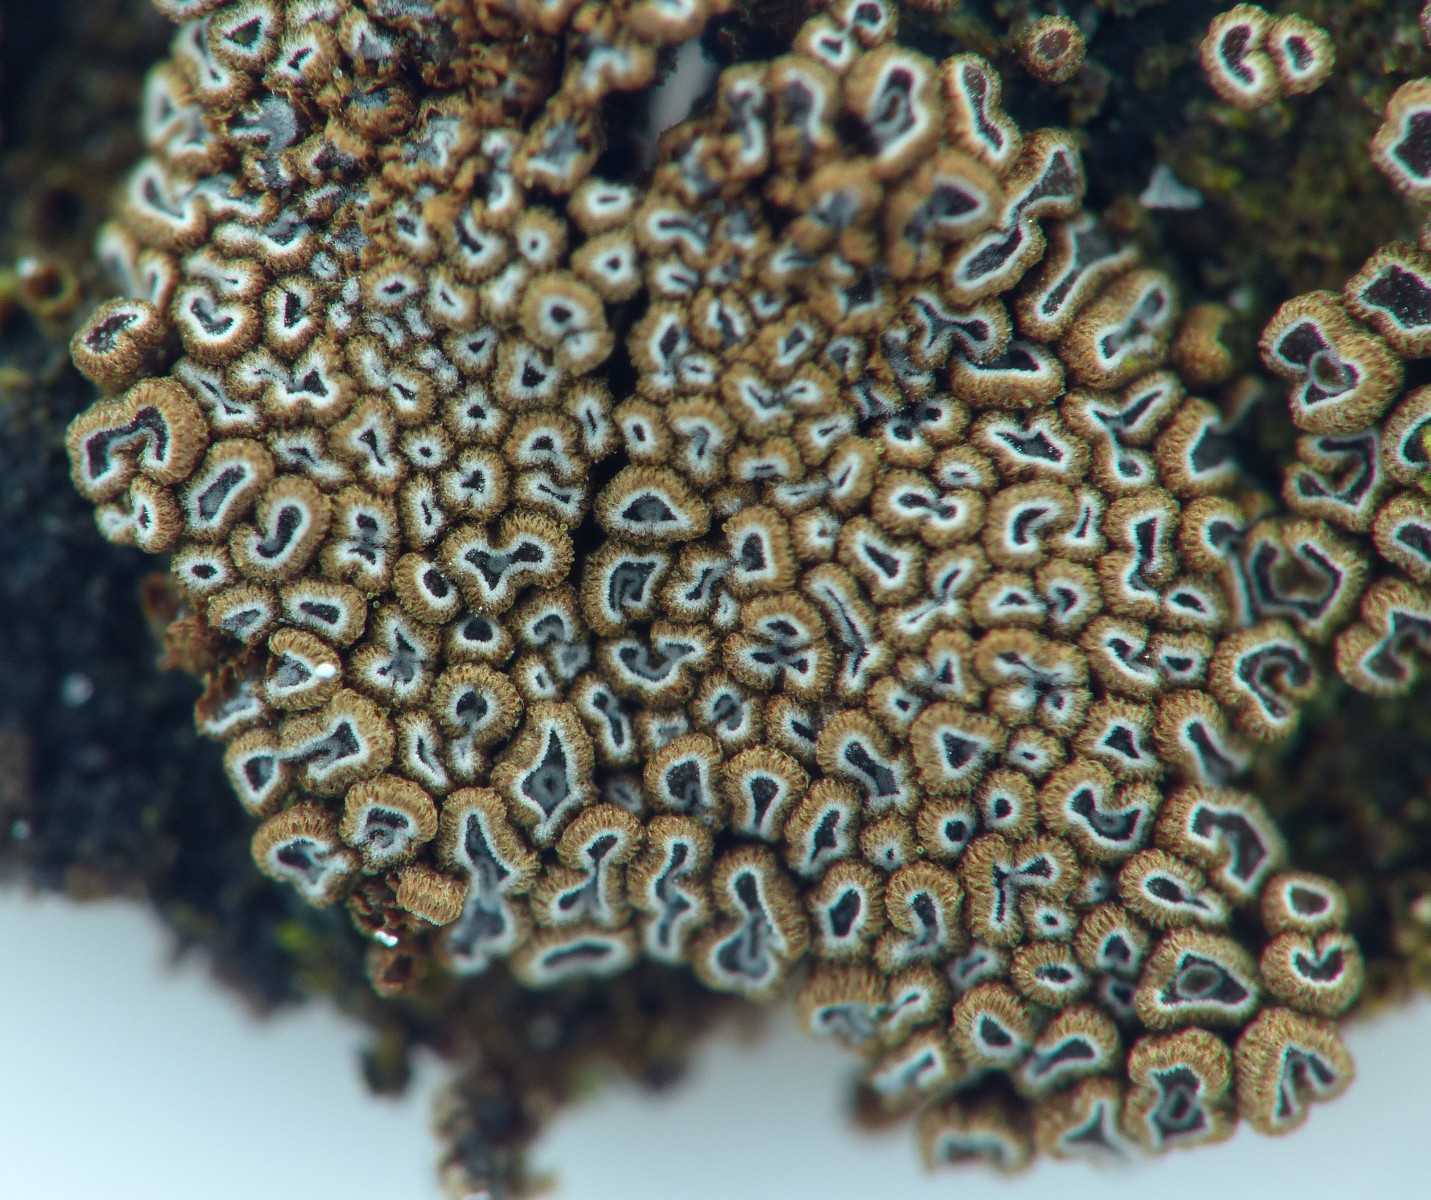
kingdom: Fungi
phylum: Basidiomycota
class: Agaricomycetes
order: Agaricales
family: Niaceae
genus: Merismodes
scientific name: Merismodes anomala
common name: almindelig læderskål
